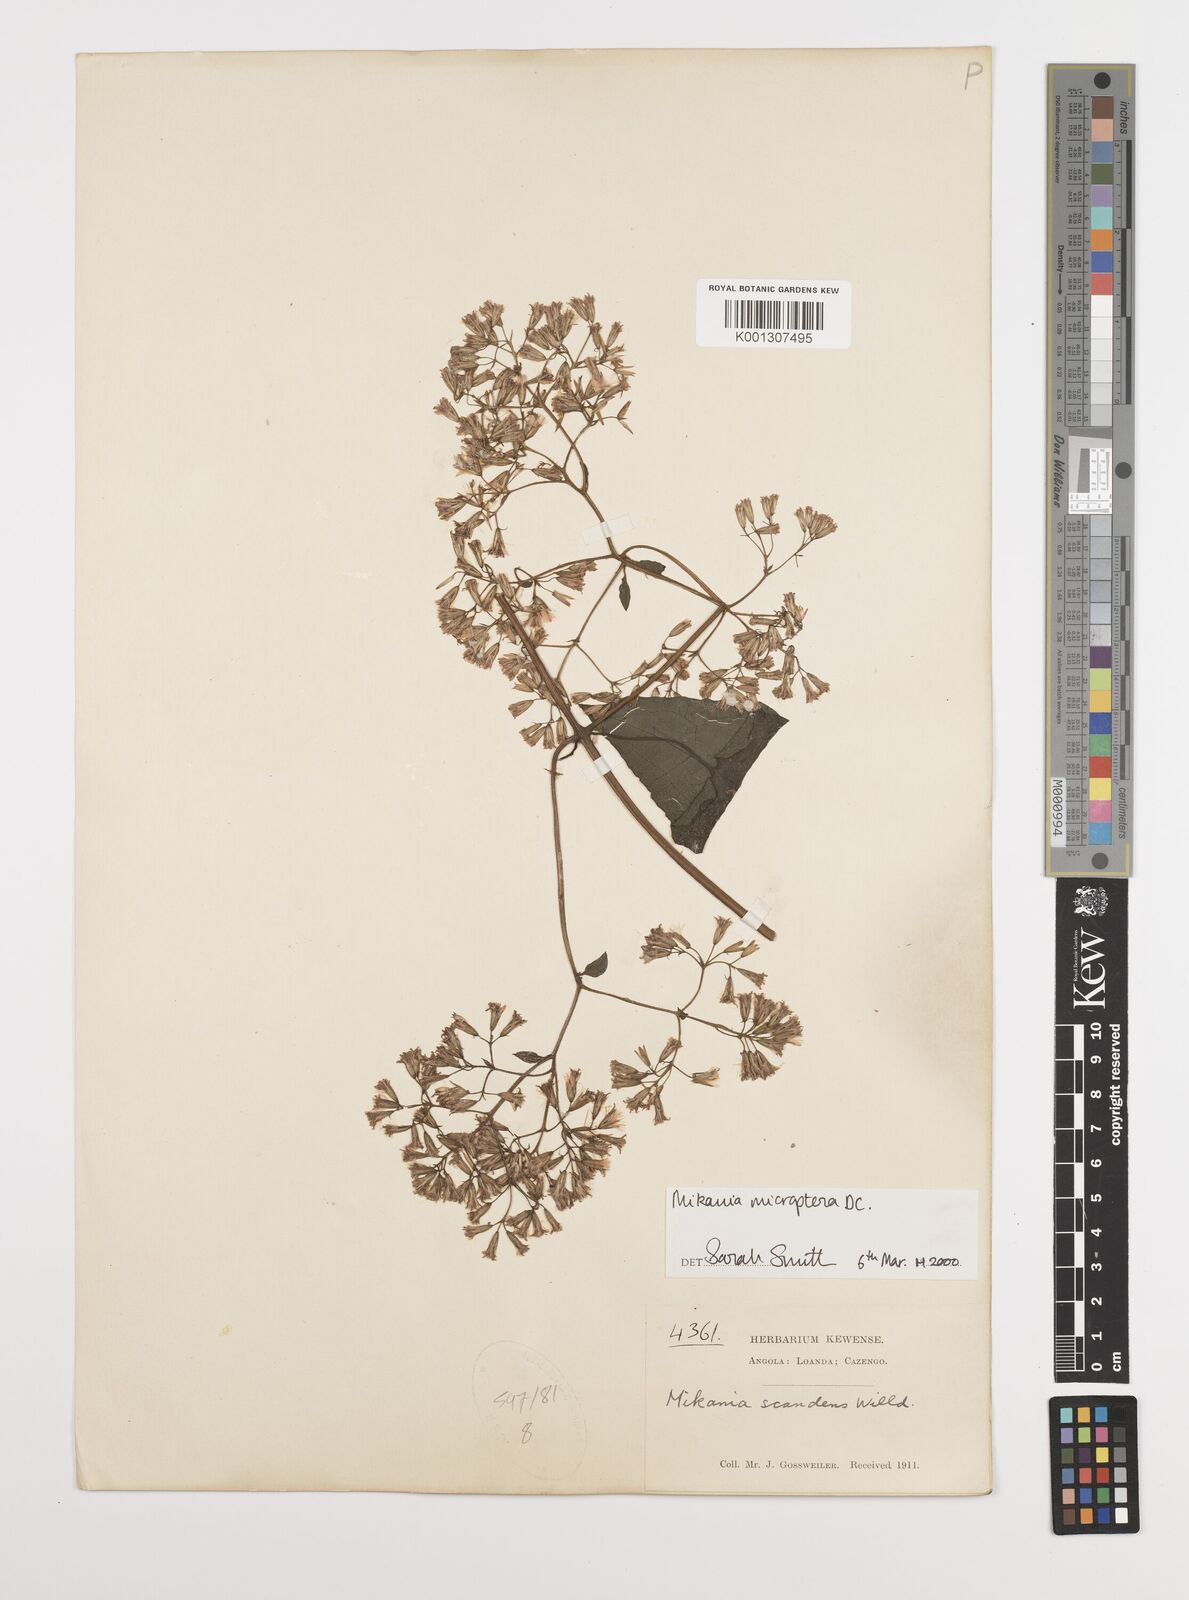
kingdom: Plantae
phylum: Tracheophyta
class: Magnoliopsida
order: Asterales
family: Asteraceae
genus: Mikania
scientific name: Mikania microptera
